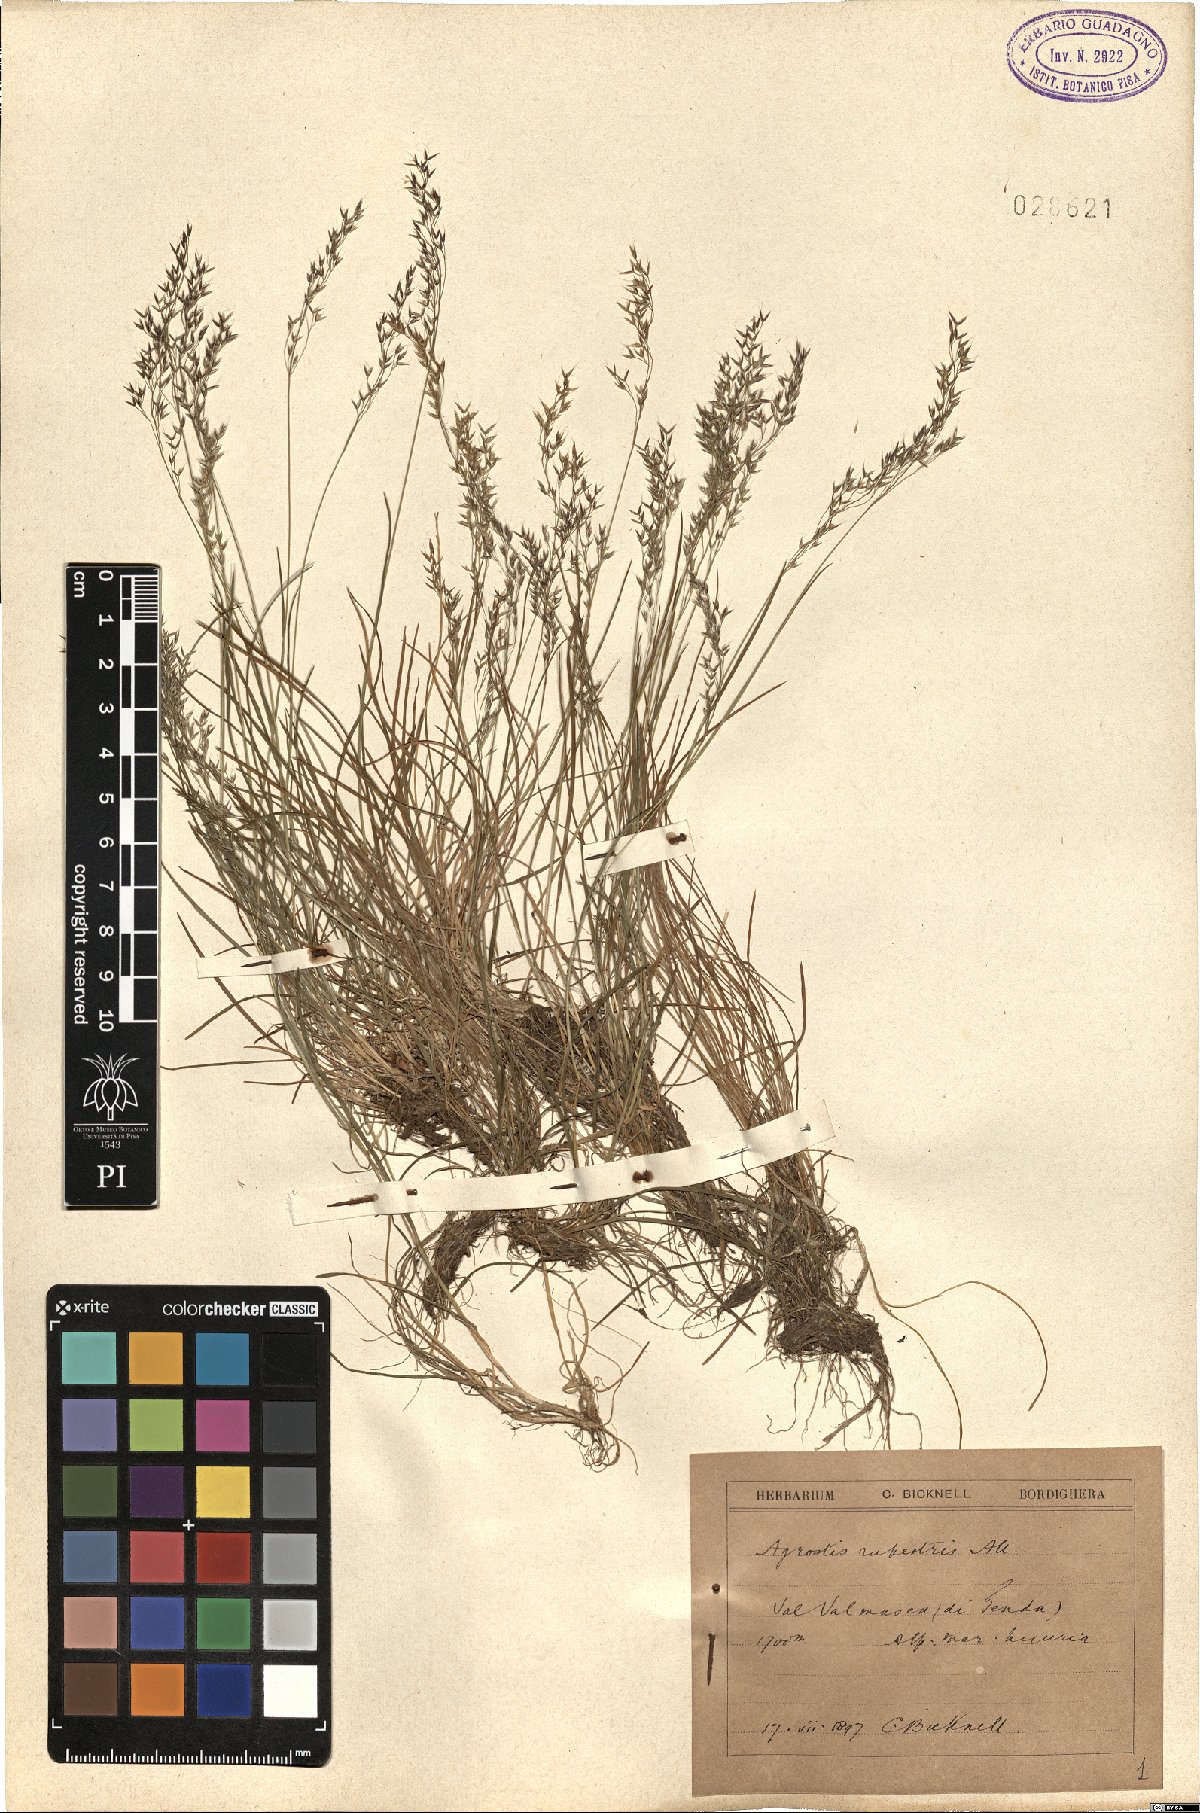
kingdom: Plantae
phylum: Tracheophyta
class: Liliopsida
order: Poales
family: Poaceae
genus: Agrostis
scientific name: Agrostis rupestris
